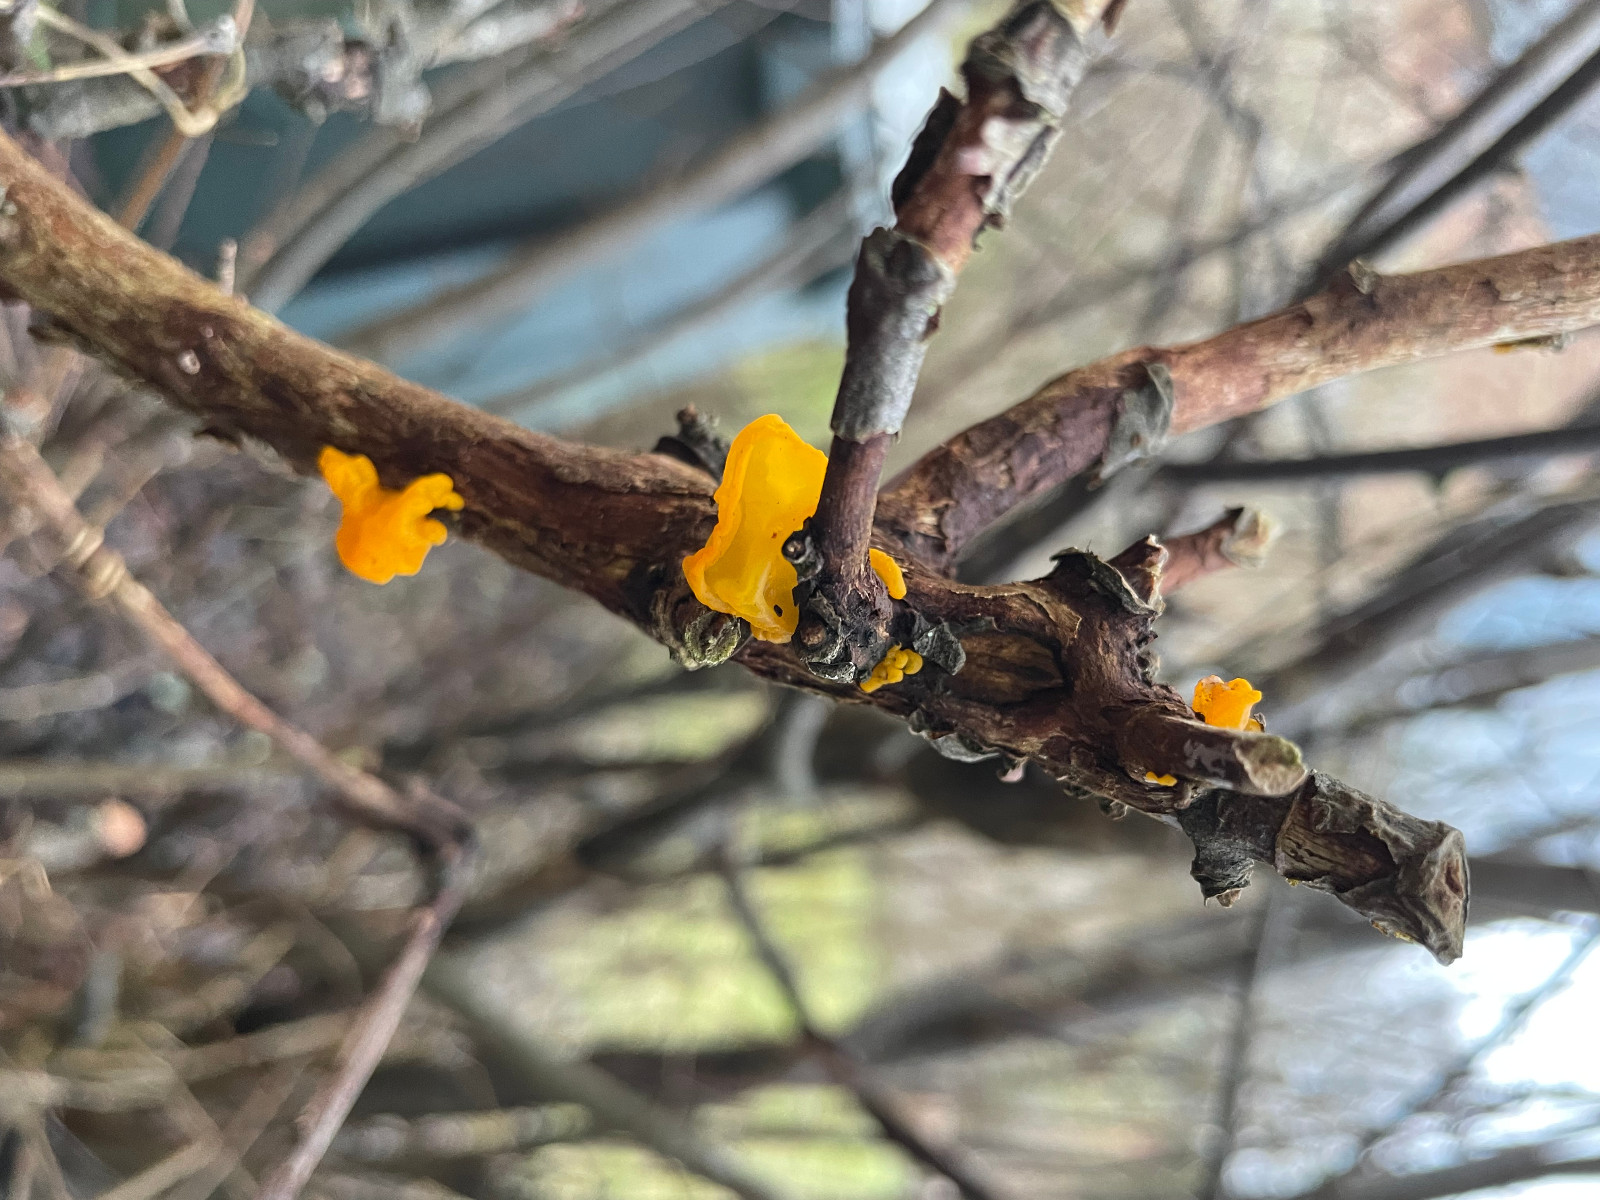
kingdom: Fungi
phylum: Basidiomycota
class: Tremellomycetes
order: Tremellales
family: Tremellaceae
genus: Tremella
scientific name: Tremella mesenterica
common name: gul bævresvamp
